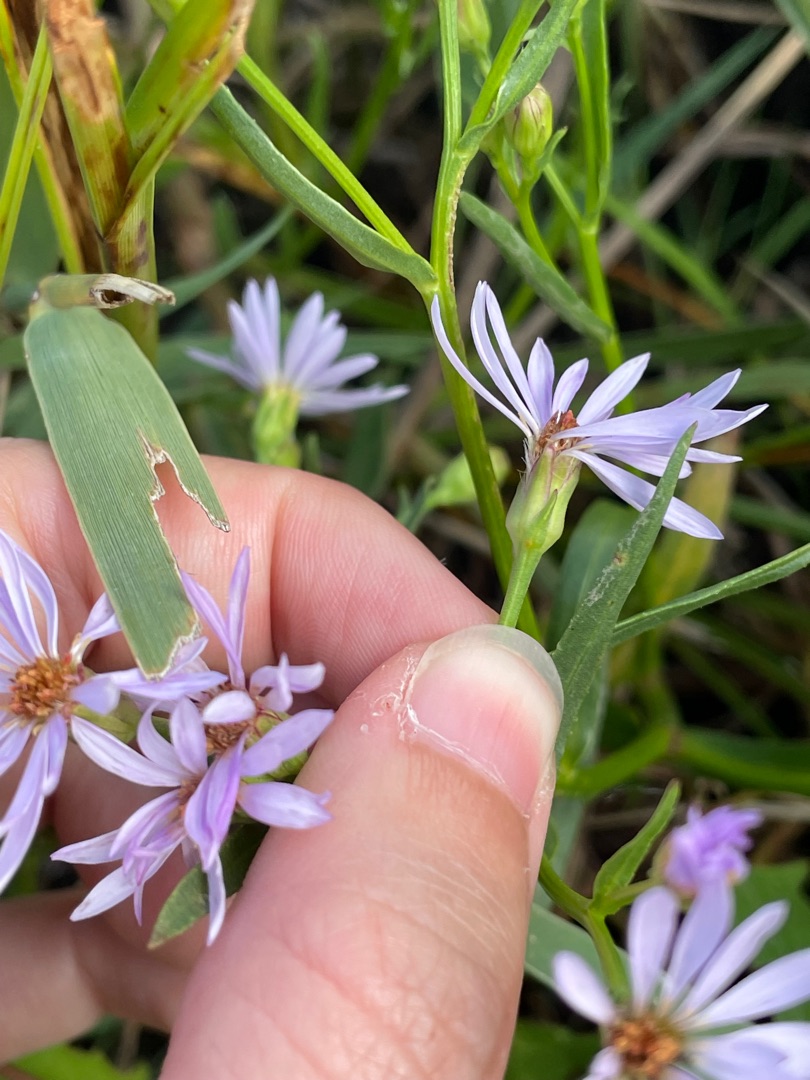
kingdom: Plantae
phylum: Tracheophyta
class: Magnoliopsida
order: Asterales
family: Asteraceae
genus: Tripolium
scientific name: Tripolium pannonicum
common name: Strandasters
